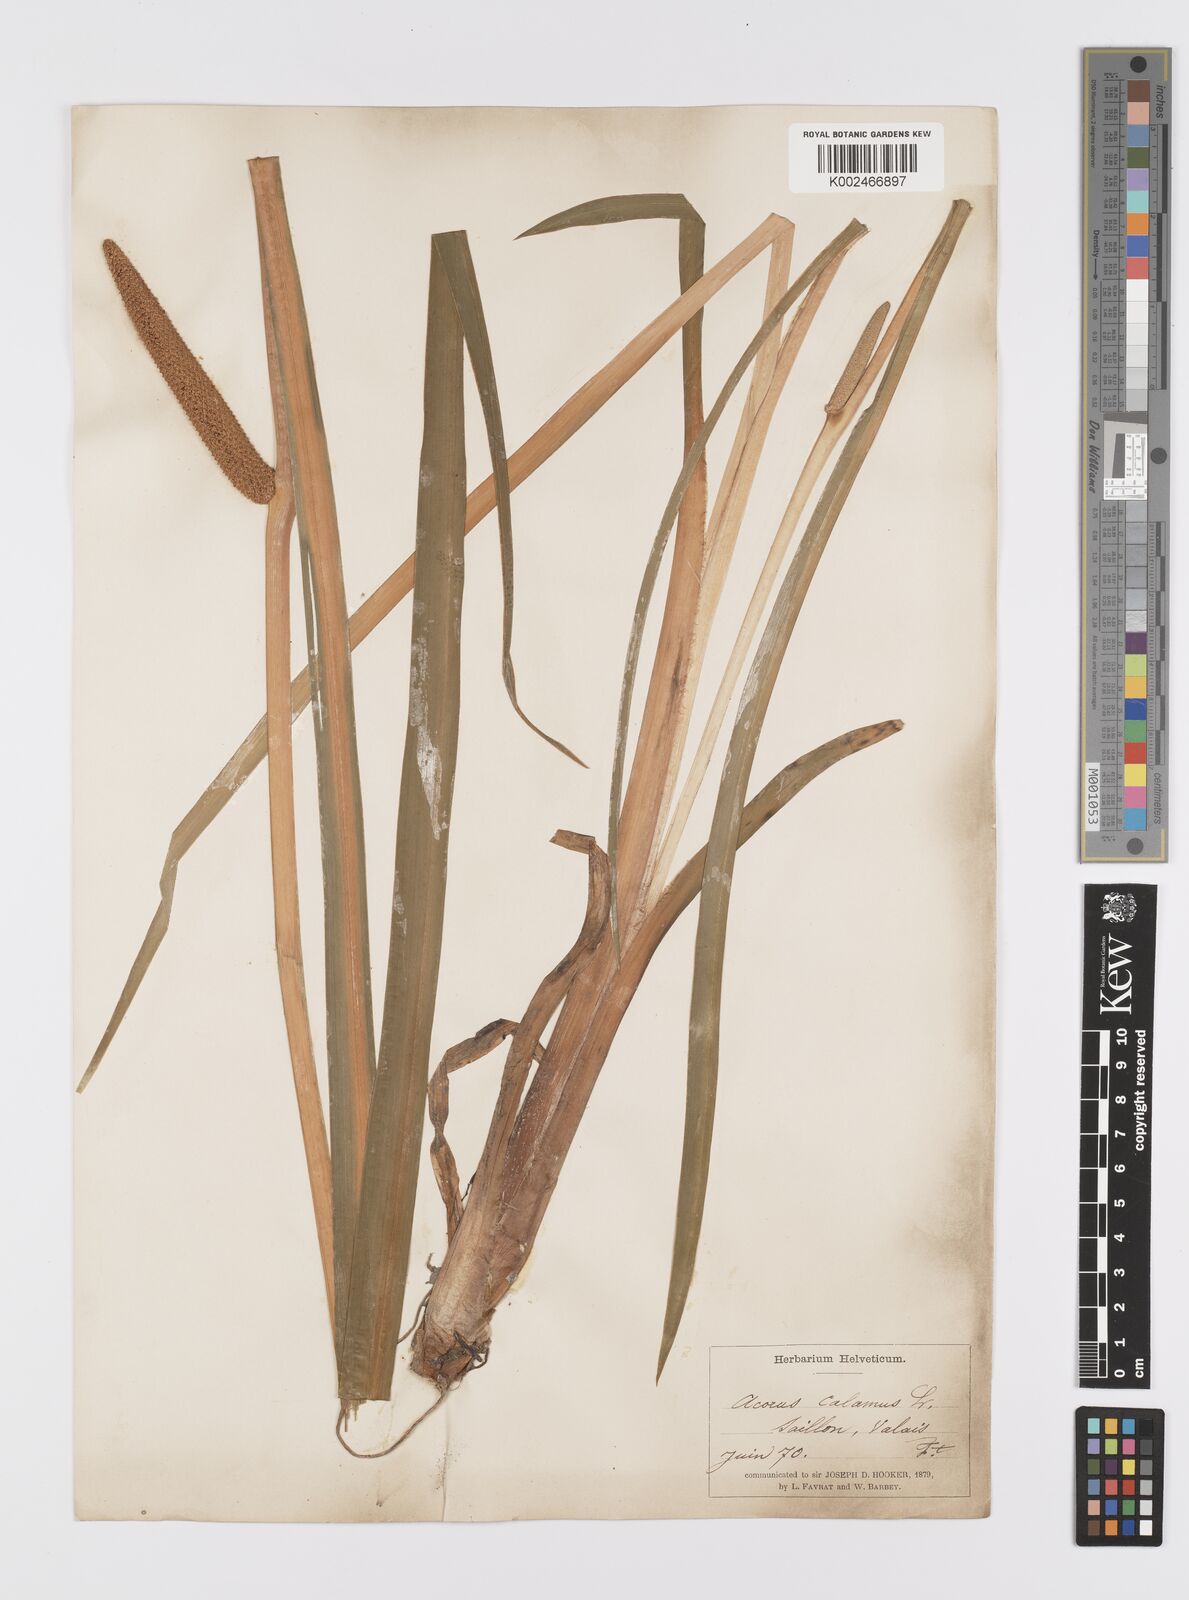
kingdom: Plantae
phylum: Tracheophyta
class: Liliopsida
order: Acorales
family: Acoraceae
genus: Acorus
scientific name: Acorus calamus
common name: Sweet-flag
